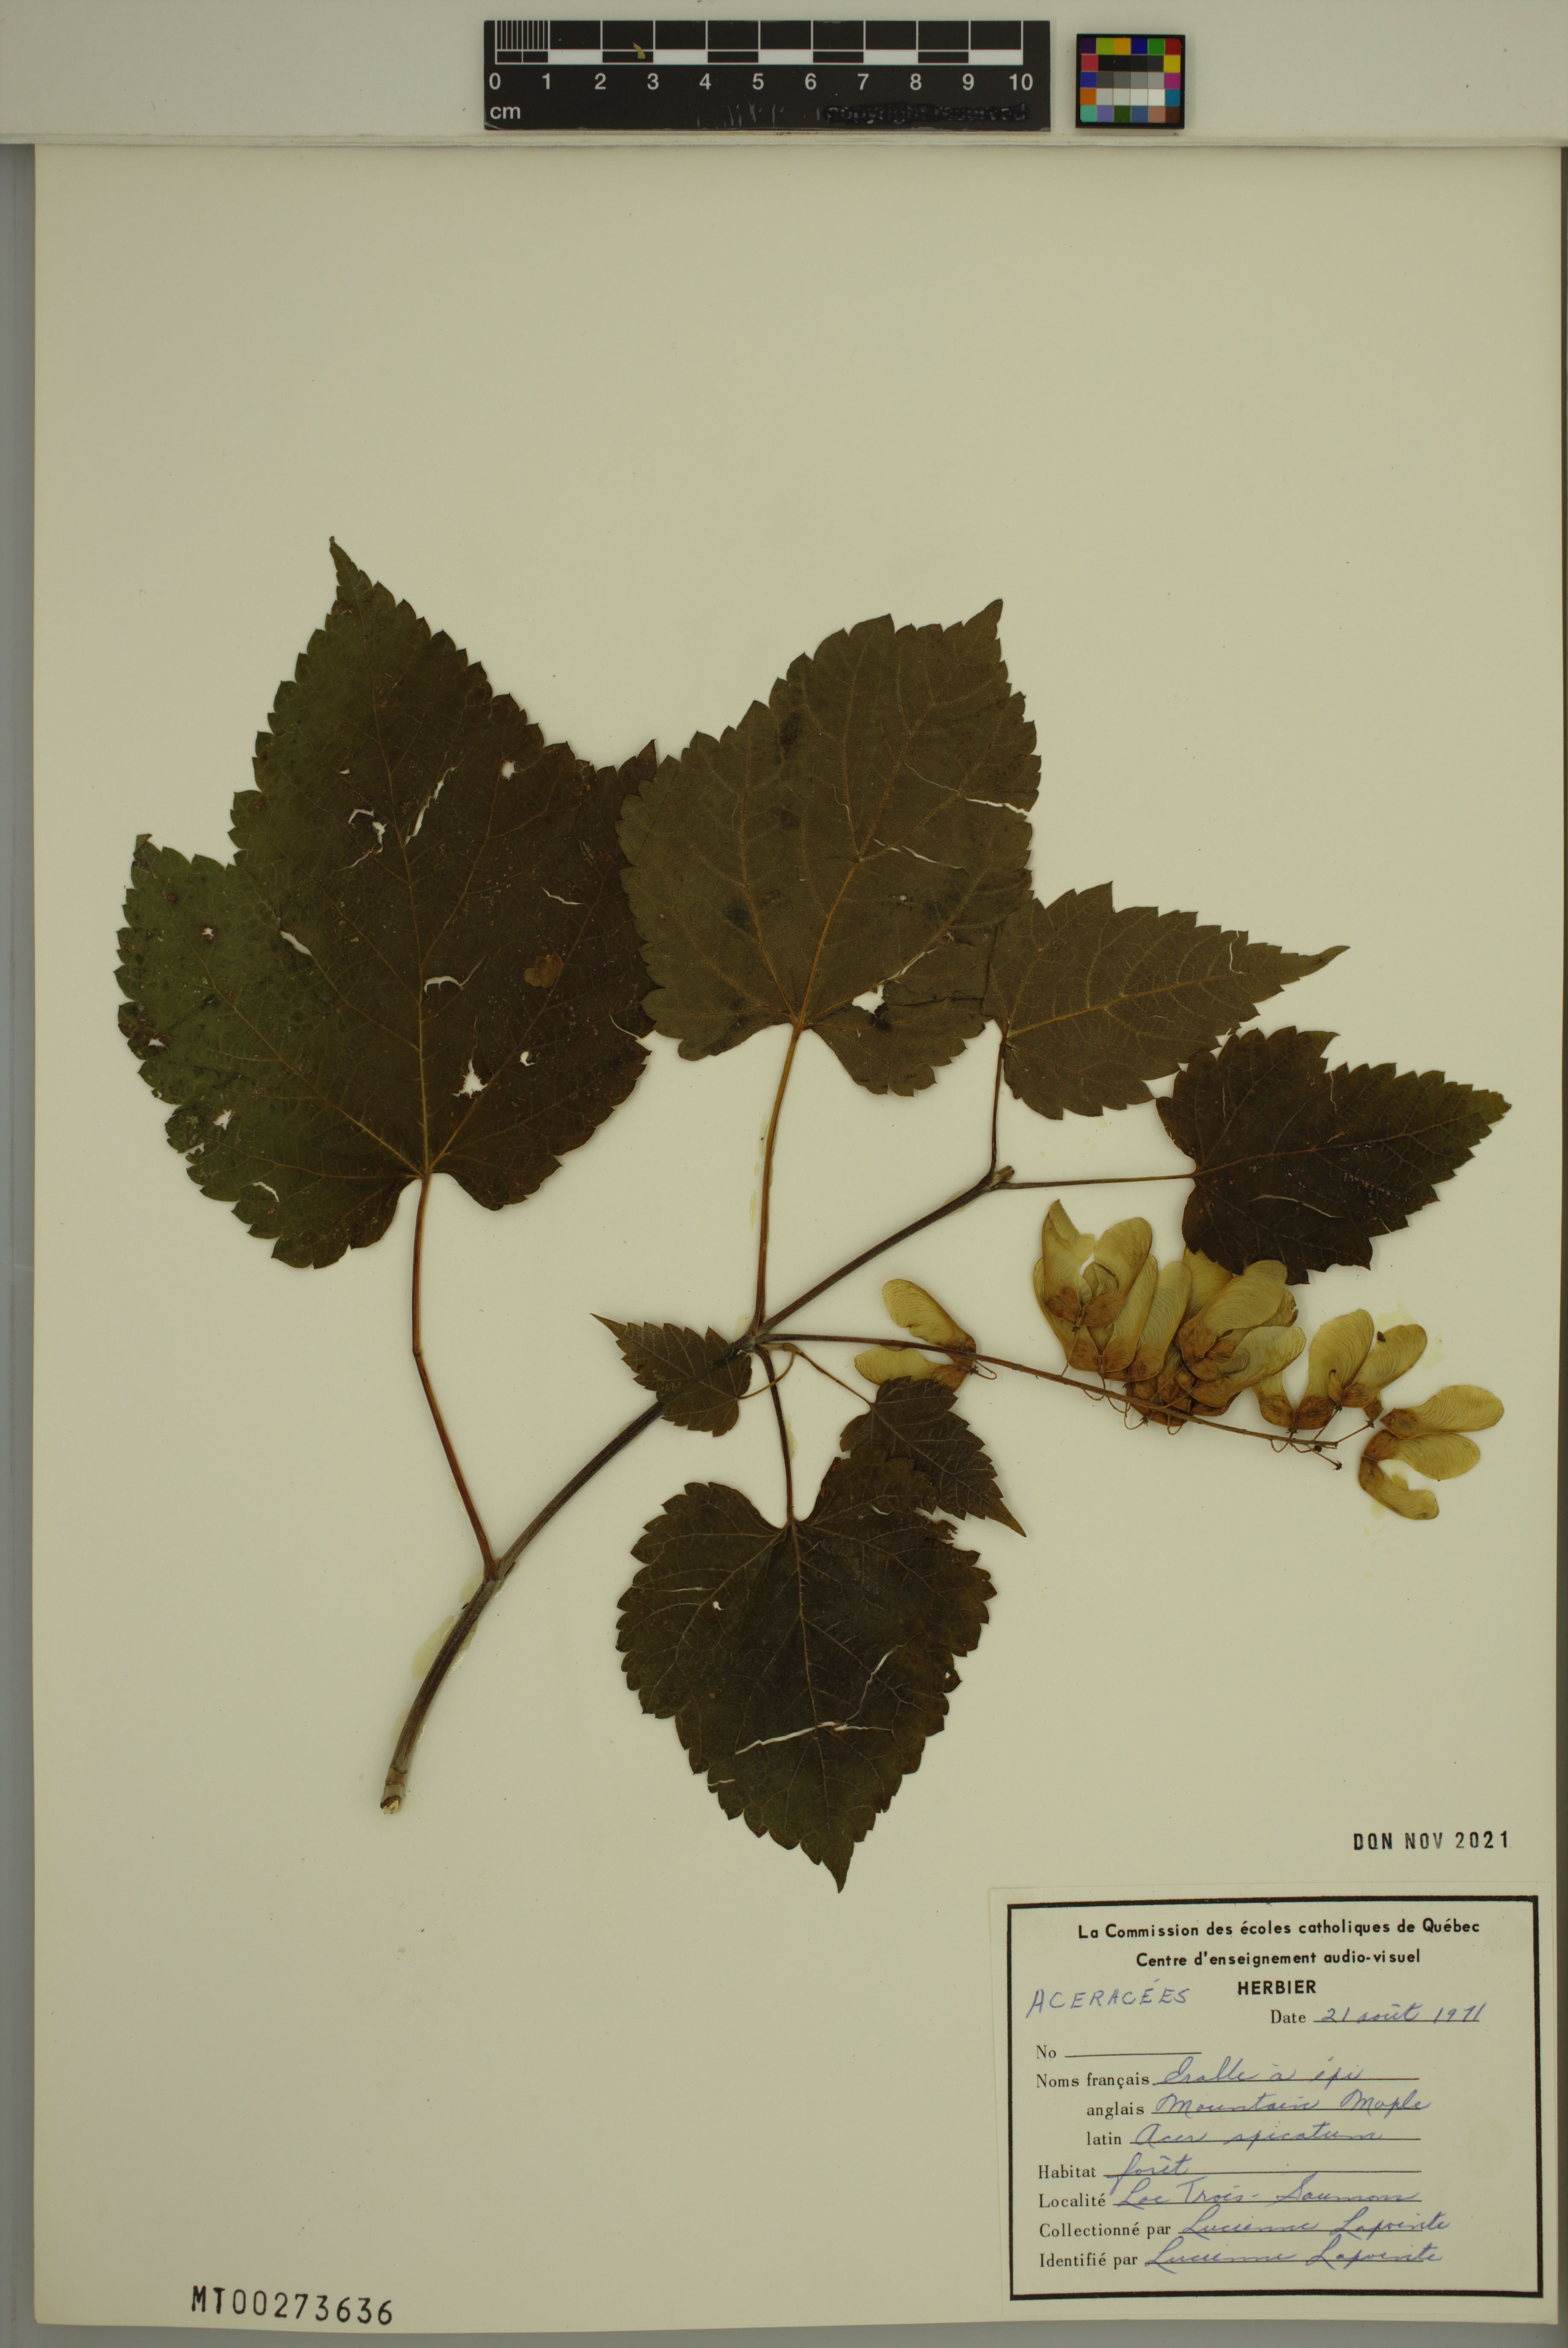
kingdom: Plantae
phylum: Tracheophyta
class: Magnoliopsida
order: Sapindales
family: Sapindaceae
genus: Acer
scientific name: Acer spicatum
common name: Mountain maple
